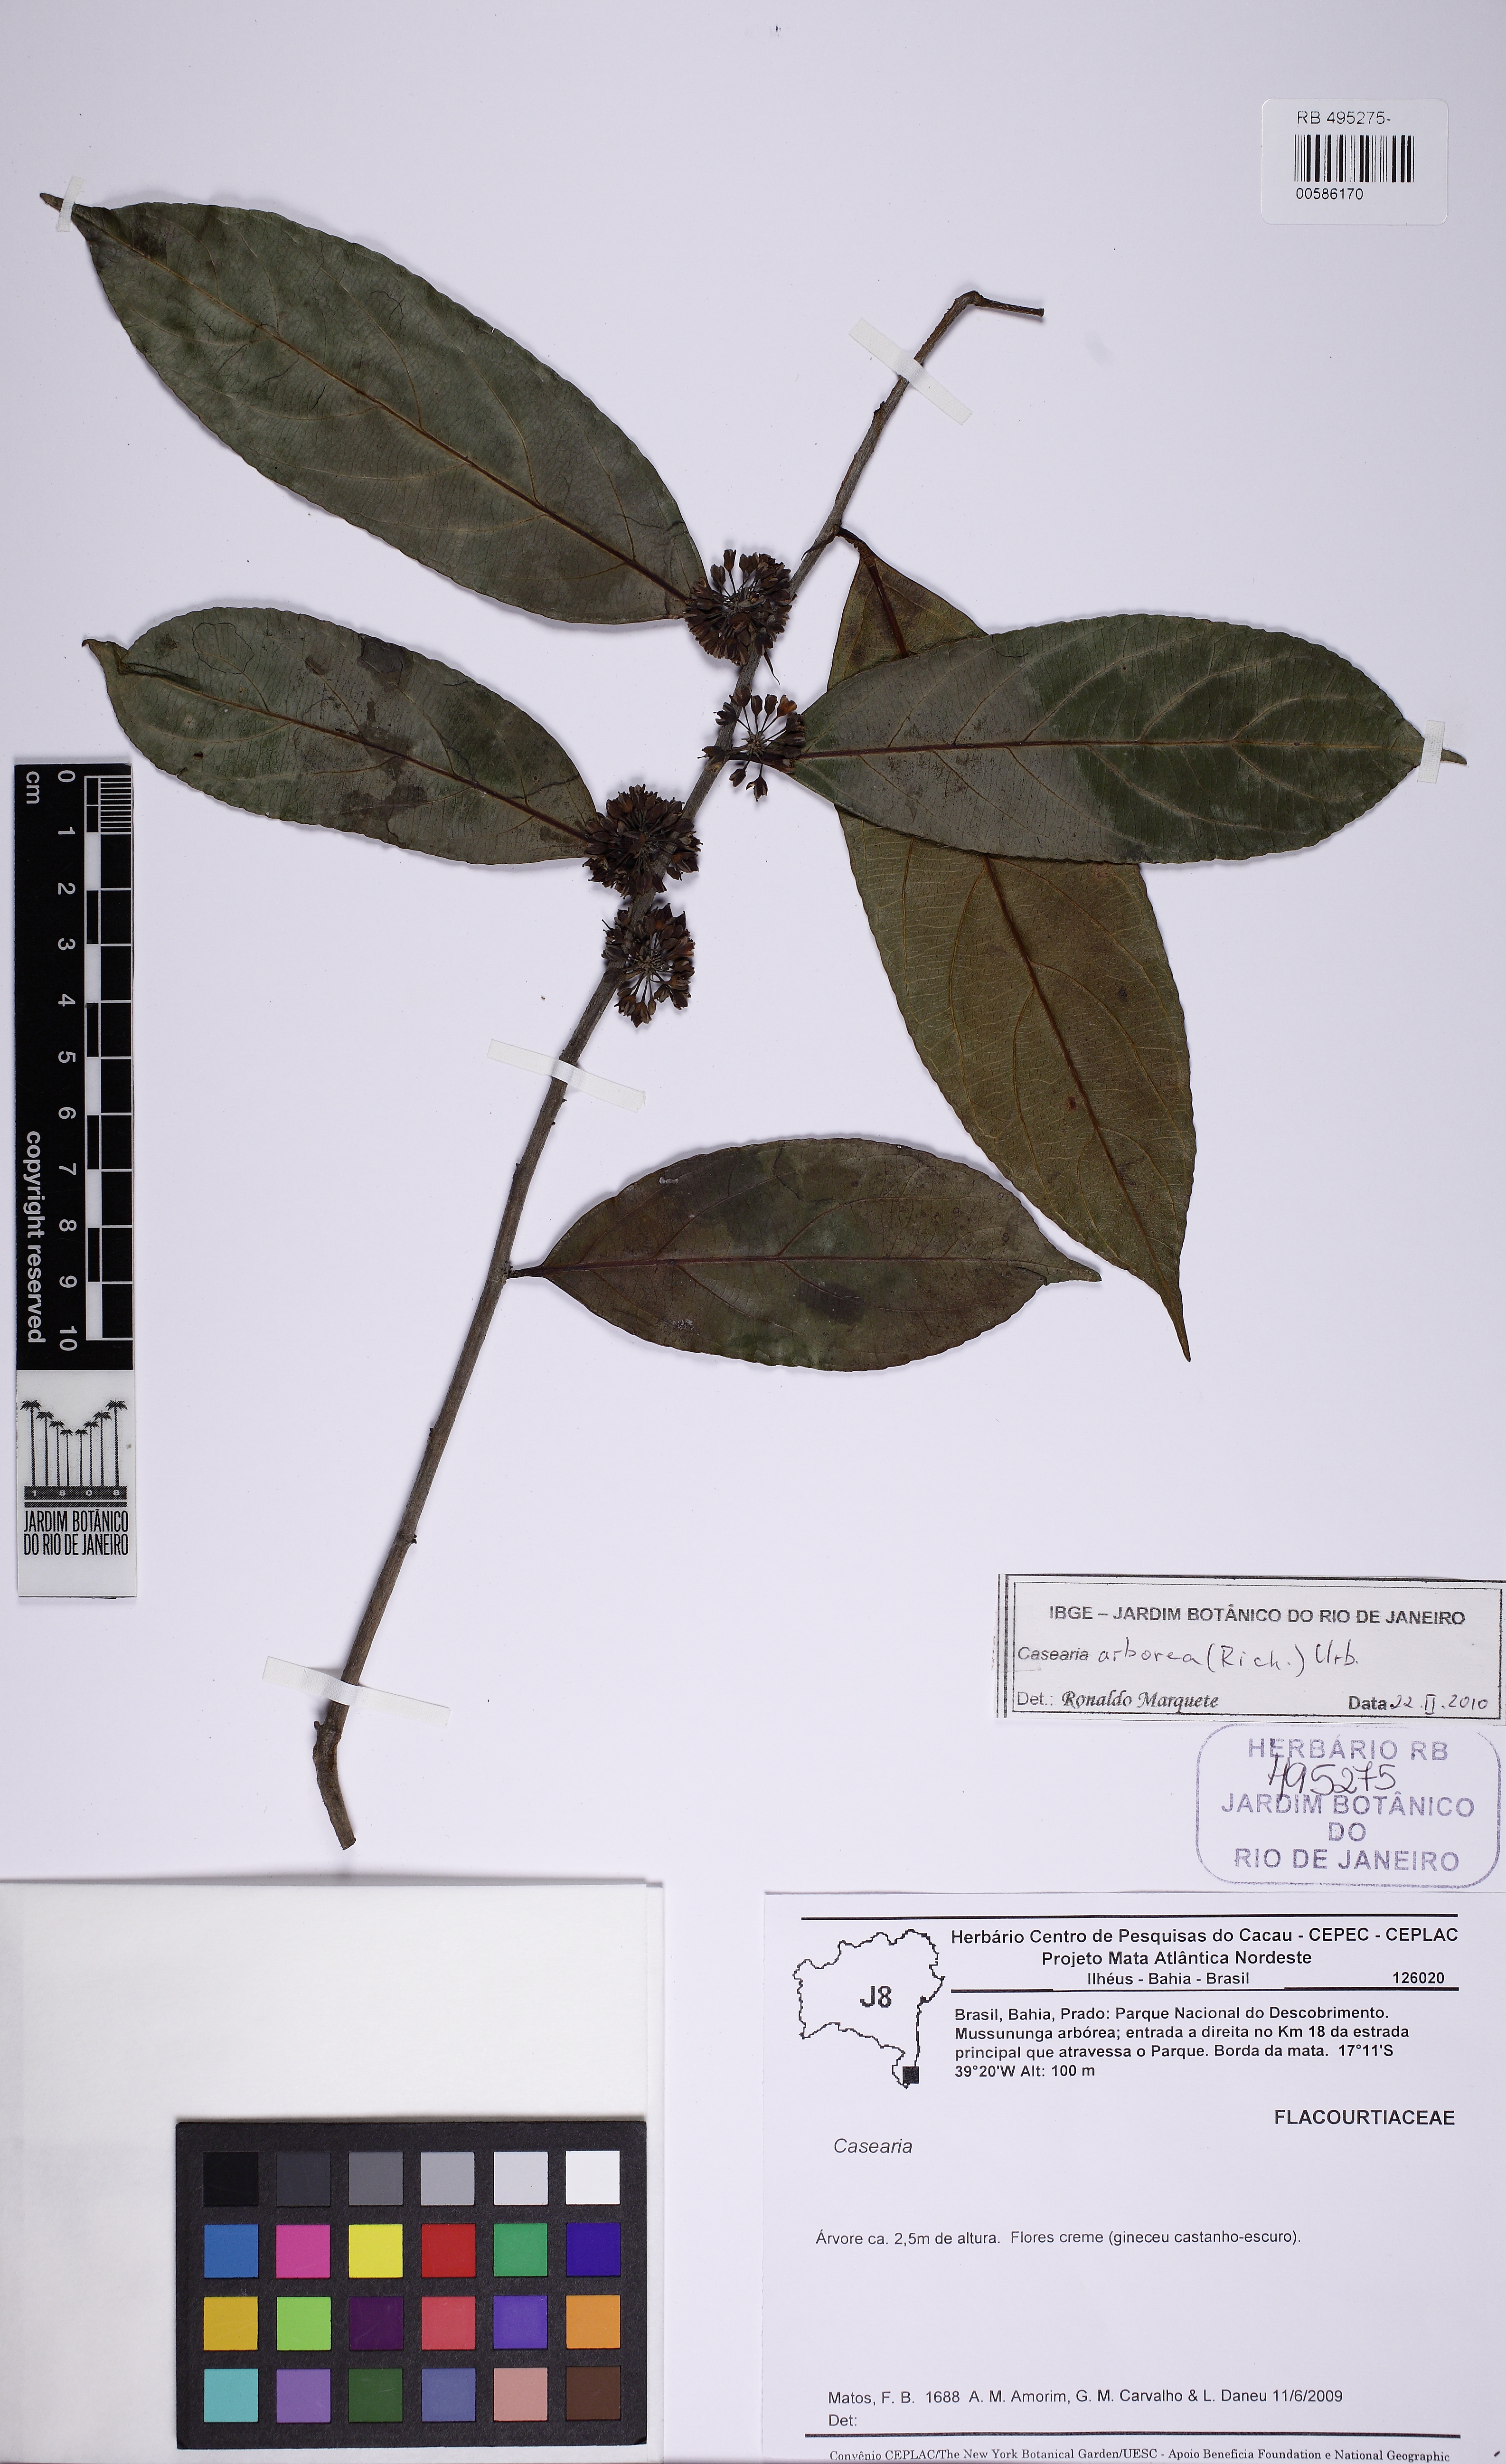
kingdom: Plantae
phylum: Tracheophyta
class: Magnoliopsida
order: Malpighiales
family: Salicaceae
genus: Casearia
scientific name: Casearia arborea
